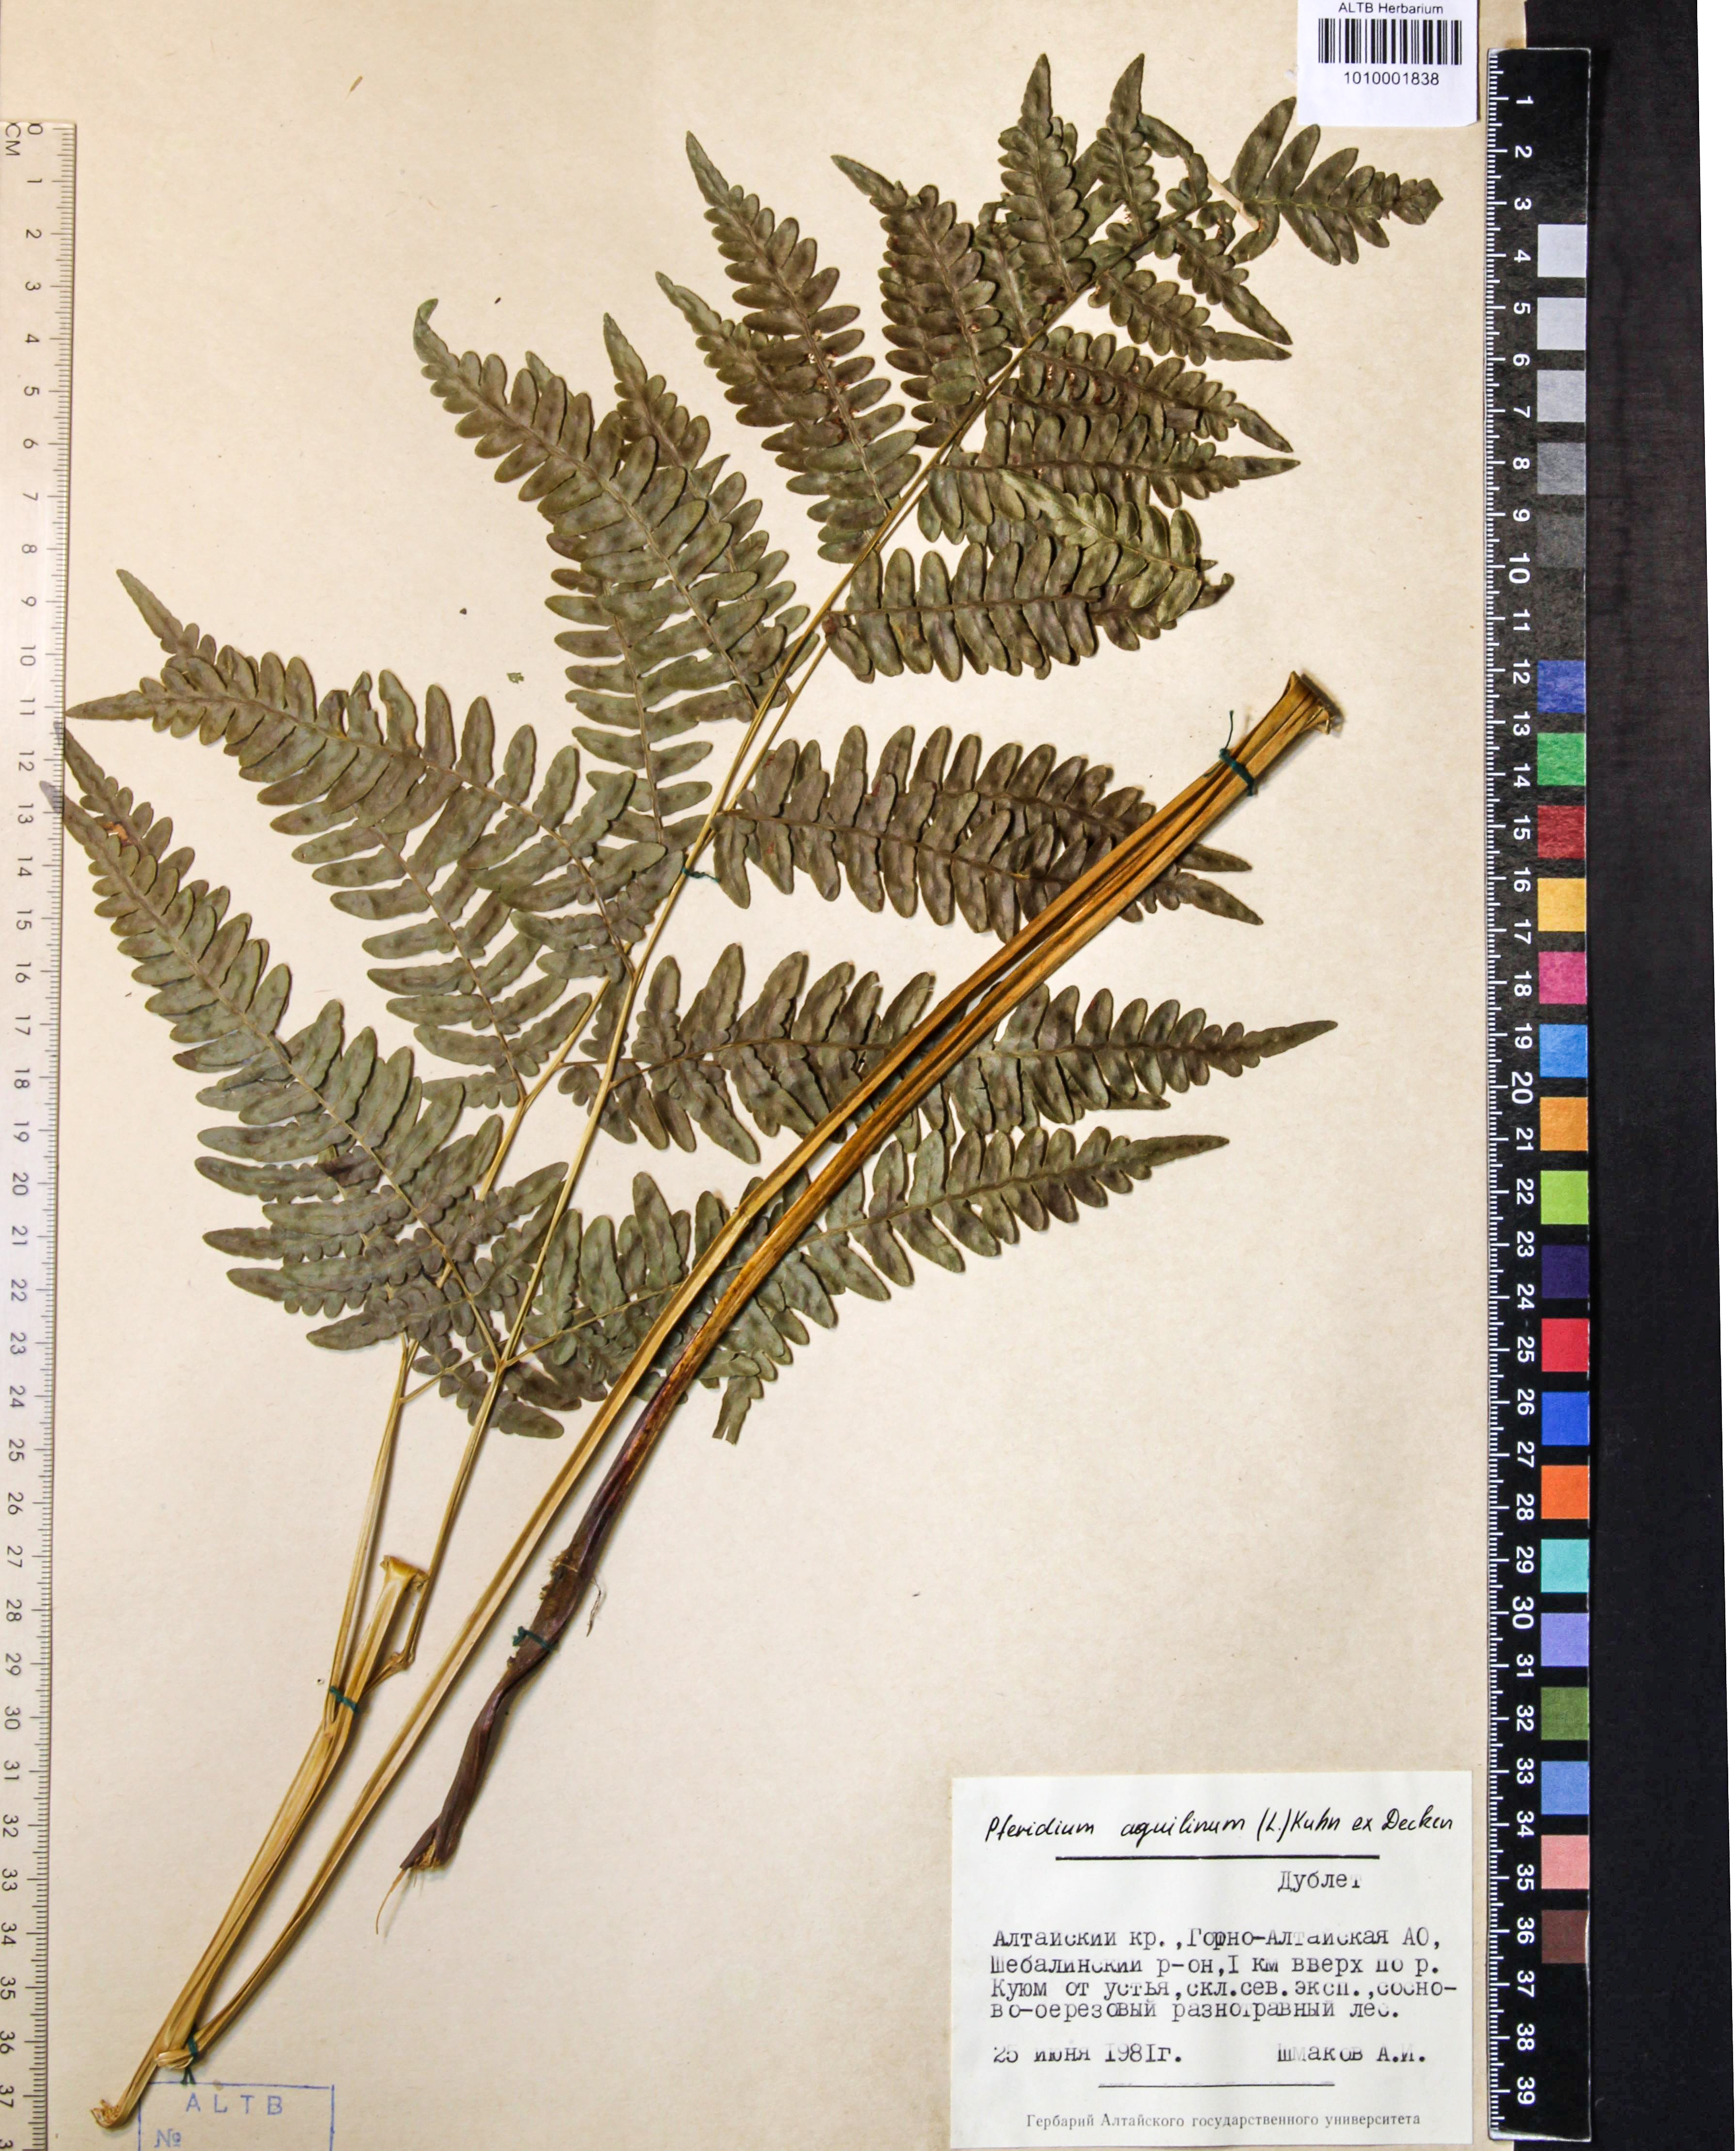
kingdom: Plantae
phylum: Tracheophyta
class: Polypodiopsida
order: Polypodiales
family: Dennstaedtiaceae
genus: Pteridium
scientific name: Pteridium aquilinum
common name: Bracken
